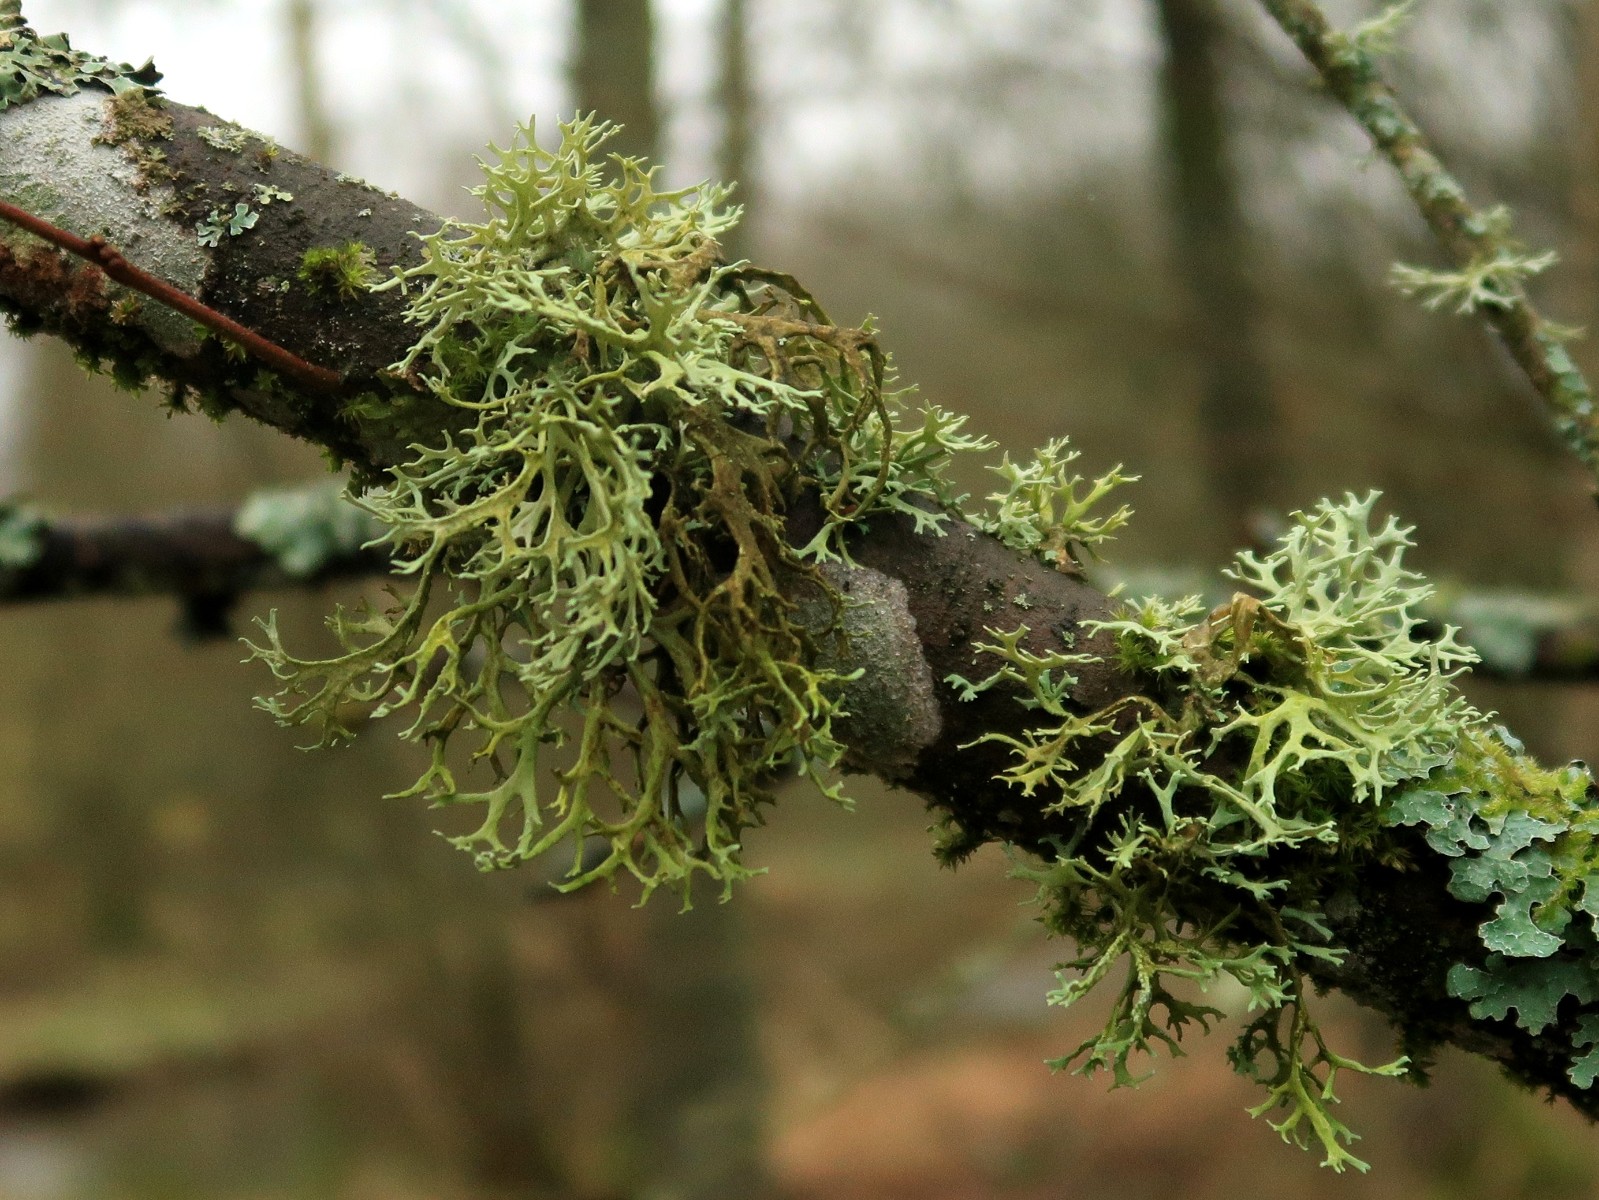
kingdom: Fungi
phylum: Ascomycota
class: Lecanoromycetes
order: Lecanorales
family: Parmeliaceae
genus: Evernia
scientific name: Evernia prunastri
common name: almindelig slåenlav
